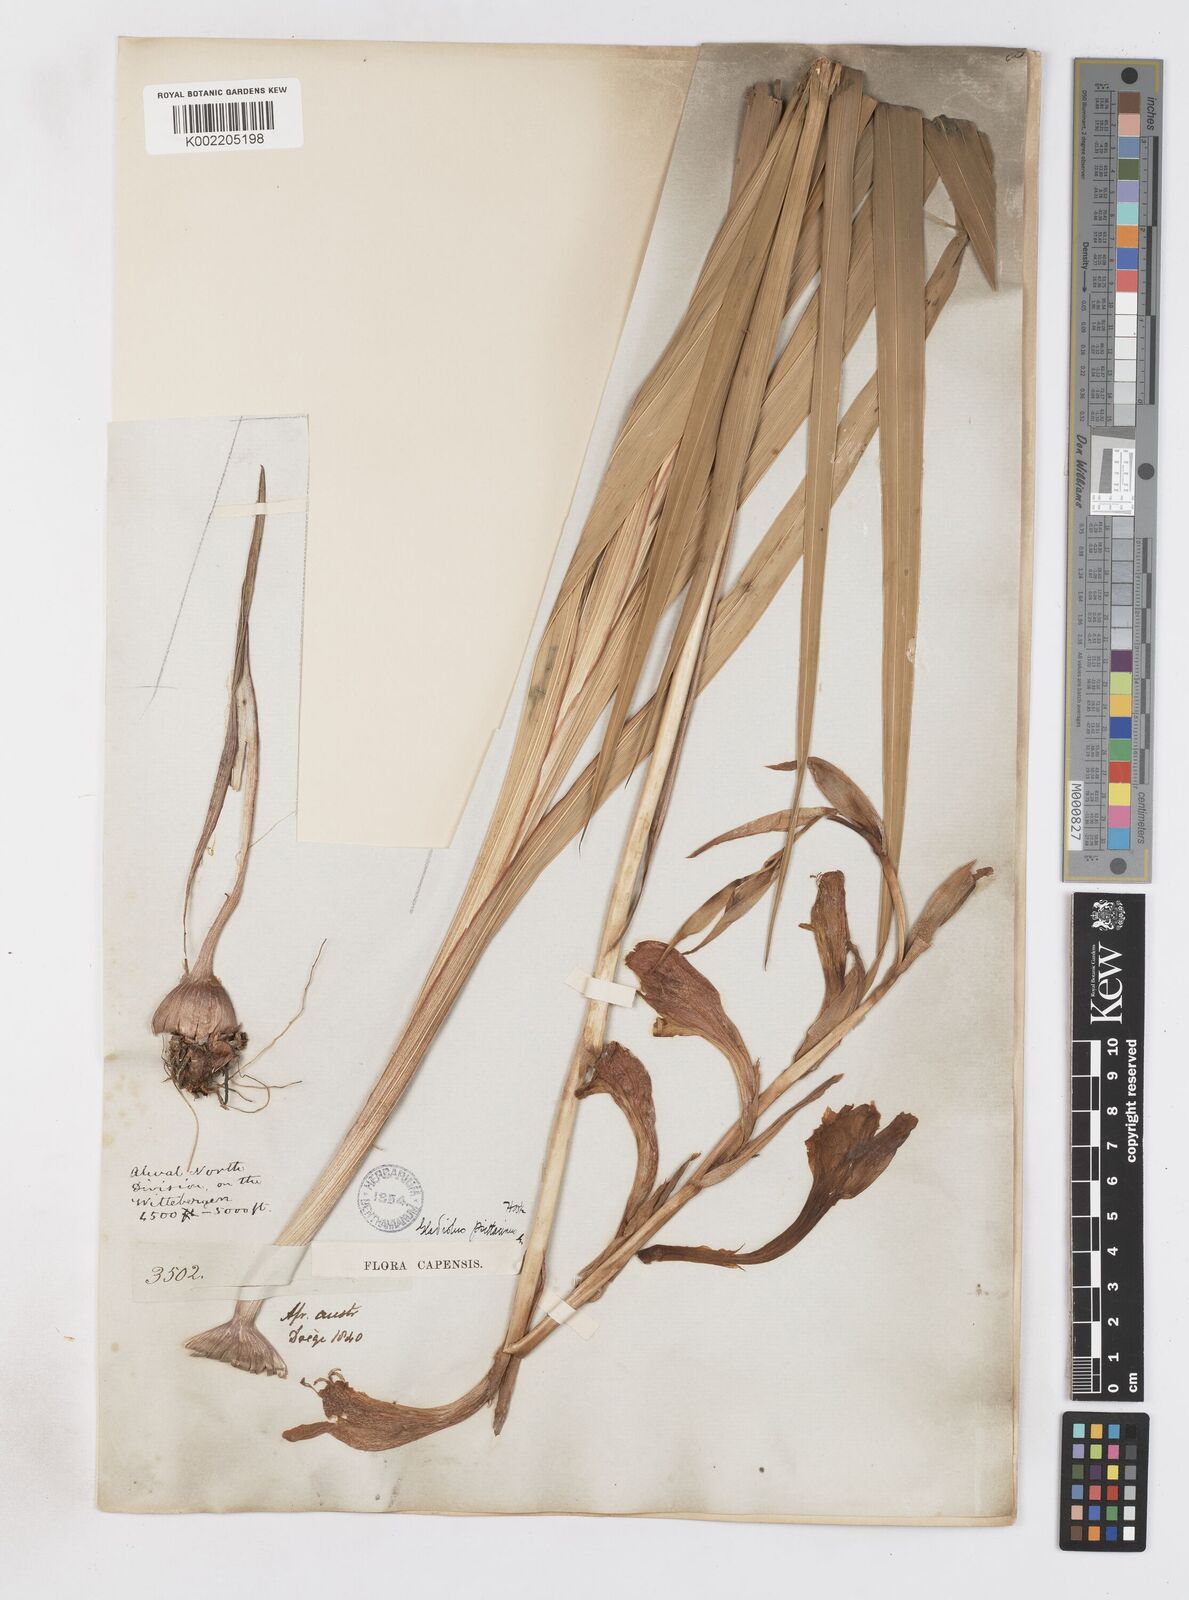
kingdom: Plantae
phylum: Tracheophyta
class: Liliopsida
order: Asparagales
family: Iridaceae
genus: Gladiolus
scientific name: Gladiolus dalenii
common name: Cornflag
